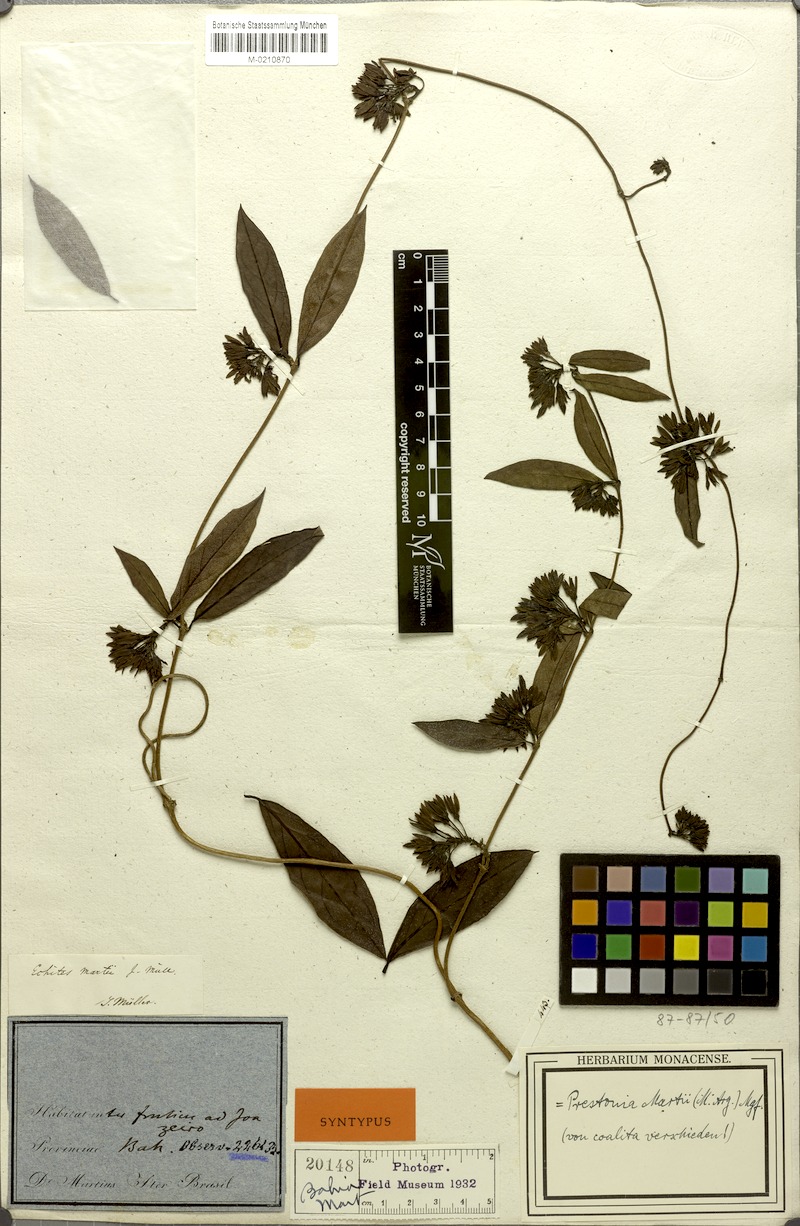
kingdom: Plantae
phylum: Tracheophyta
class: Magnoliopsida
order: Gentianales
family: Apocynaceae
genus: Prestonia
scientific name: Prestonia coalita
